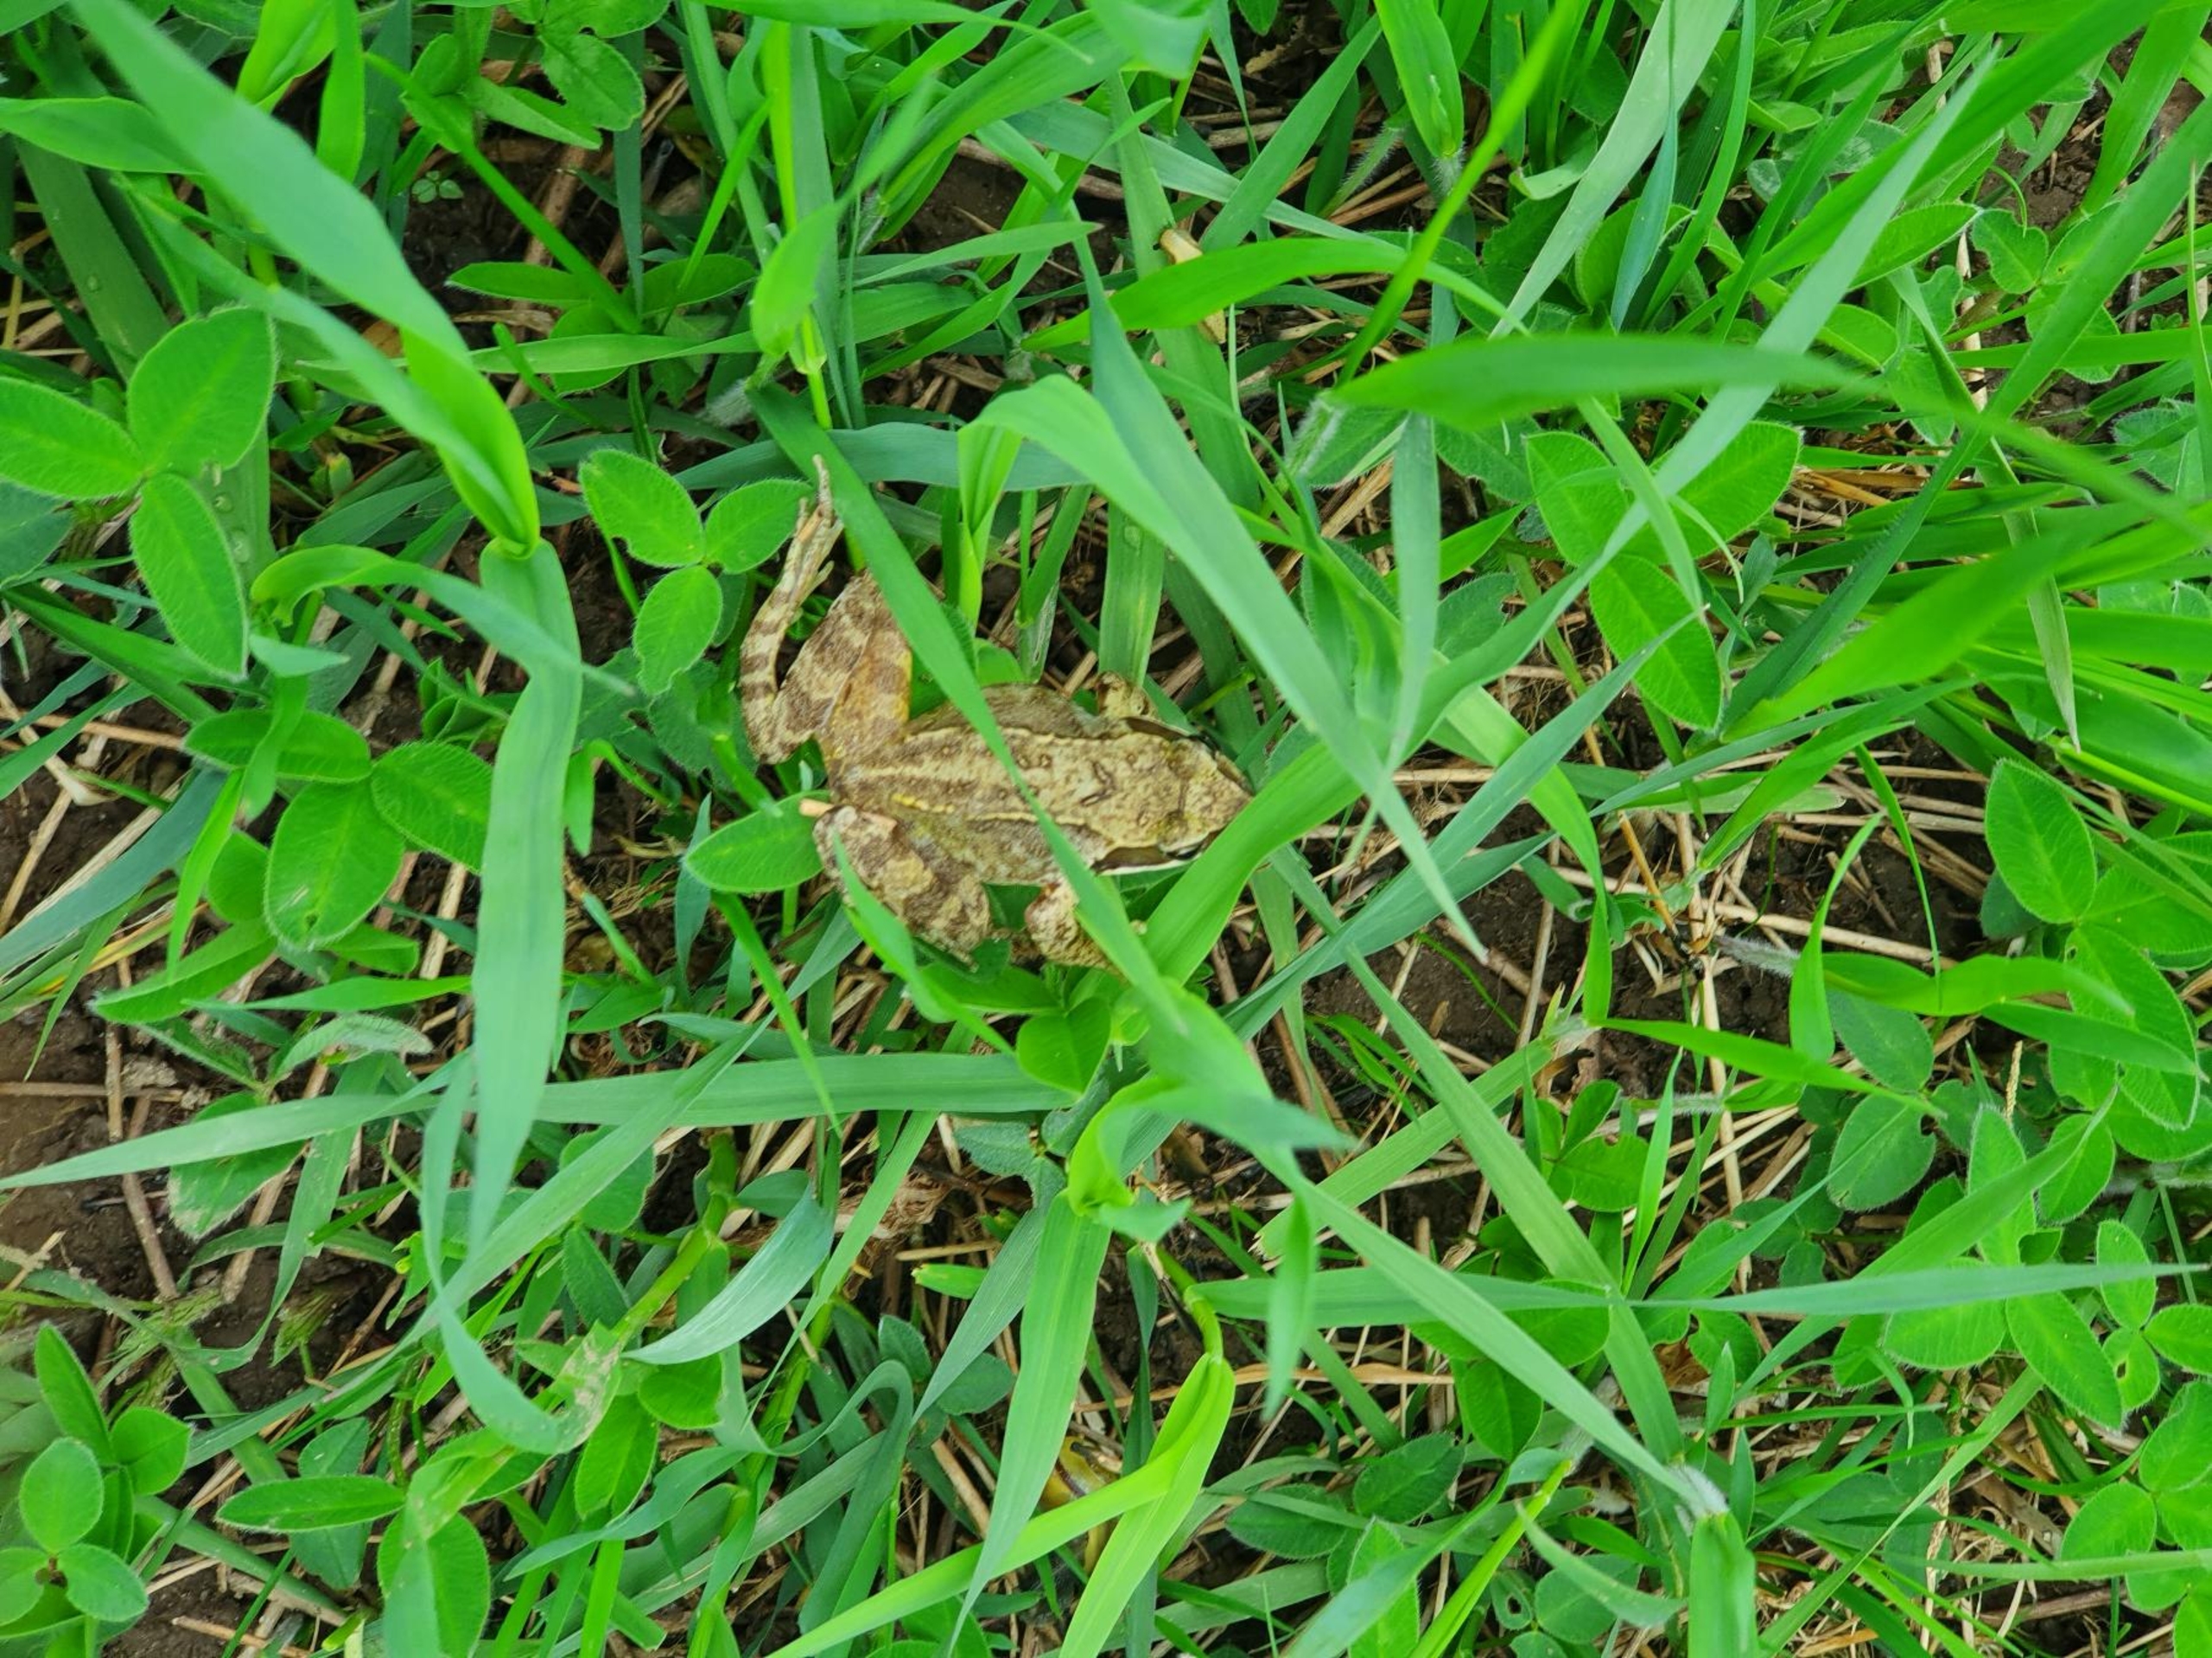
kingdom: Animalia
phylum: Chordata
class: Amphibia
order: Anura
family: Ranidae
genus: Rana
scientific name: Rana temporaria
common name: Butsnudet frø
